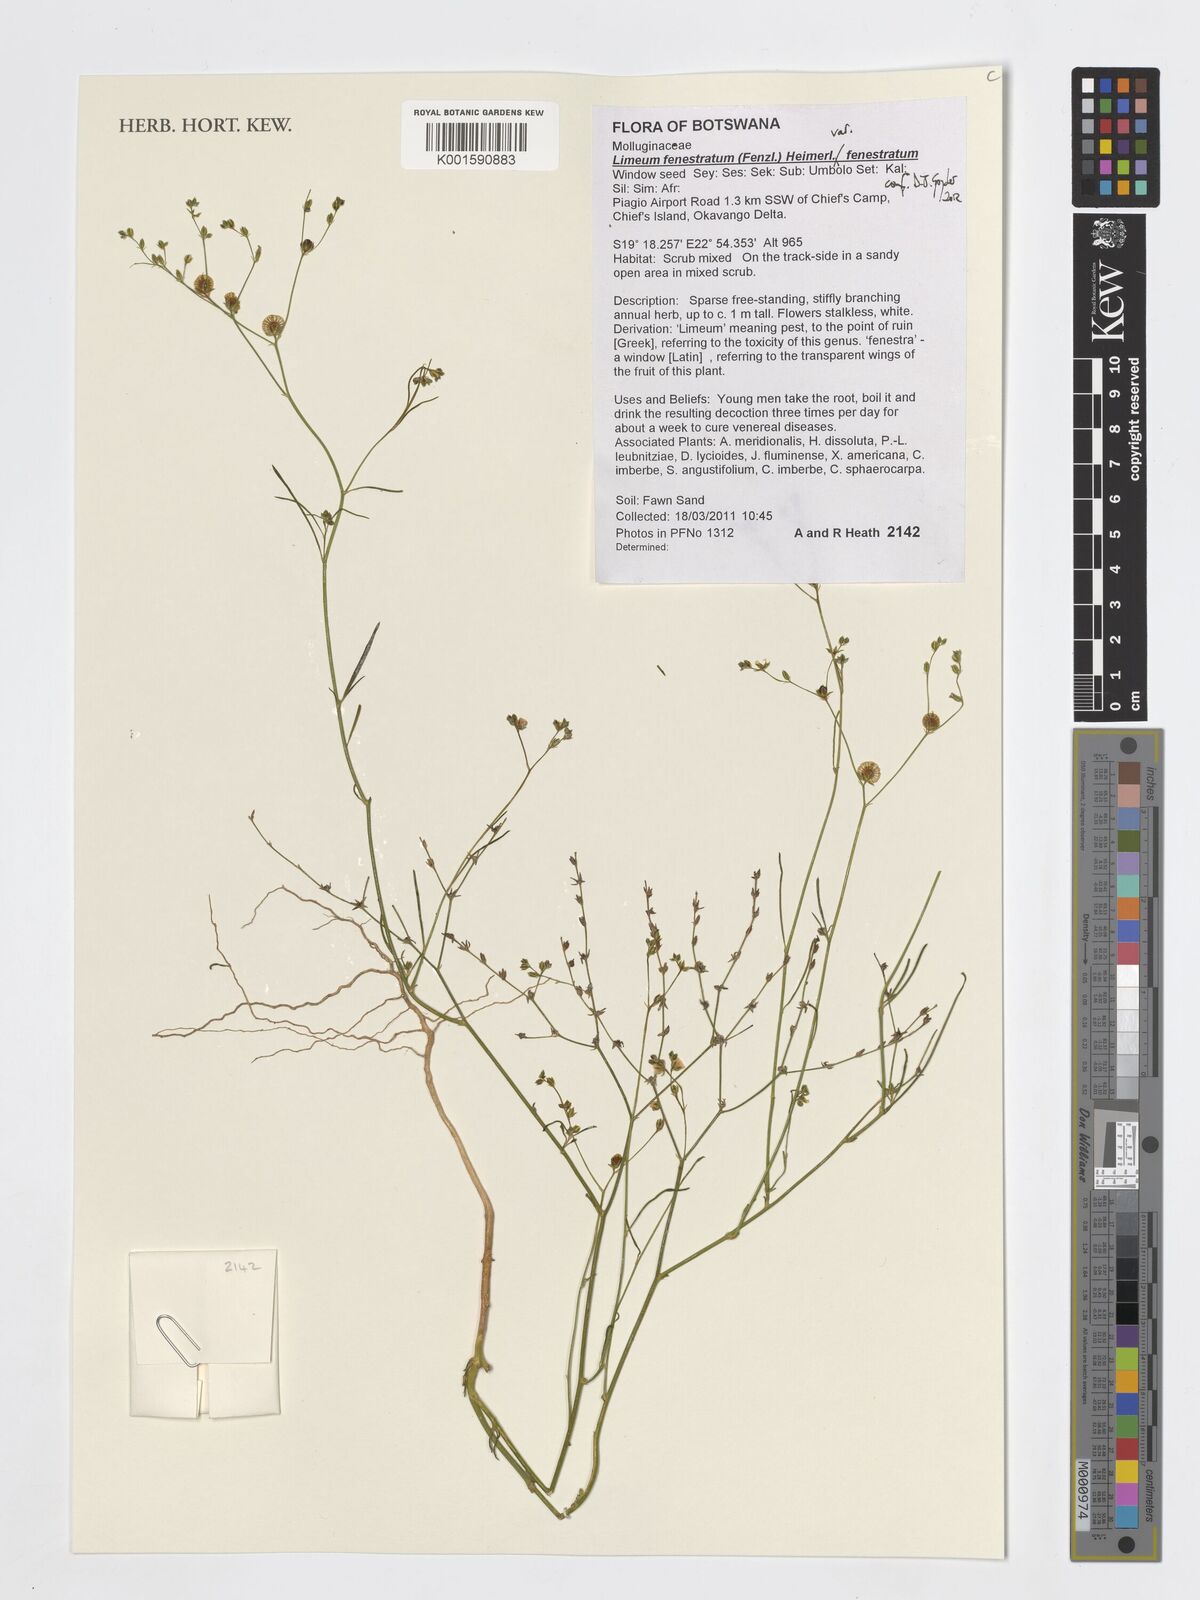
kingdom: Plantae
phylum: Tracheophyta
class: Magnoliopsida
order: Caryophyllales
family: Limeaceae
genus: Limeum
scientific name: Limeum fenestratum
